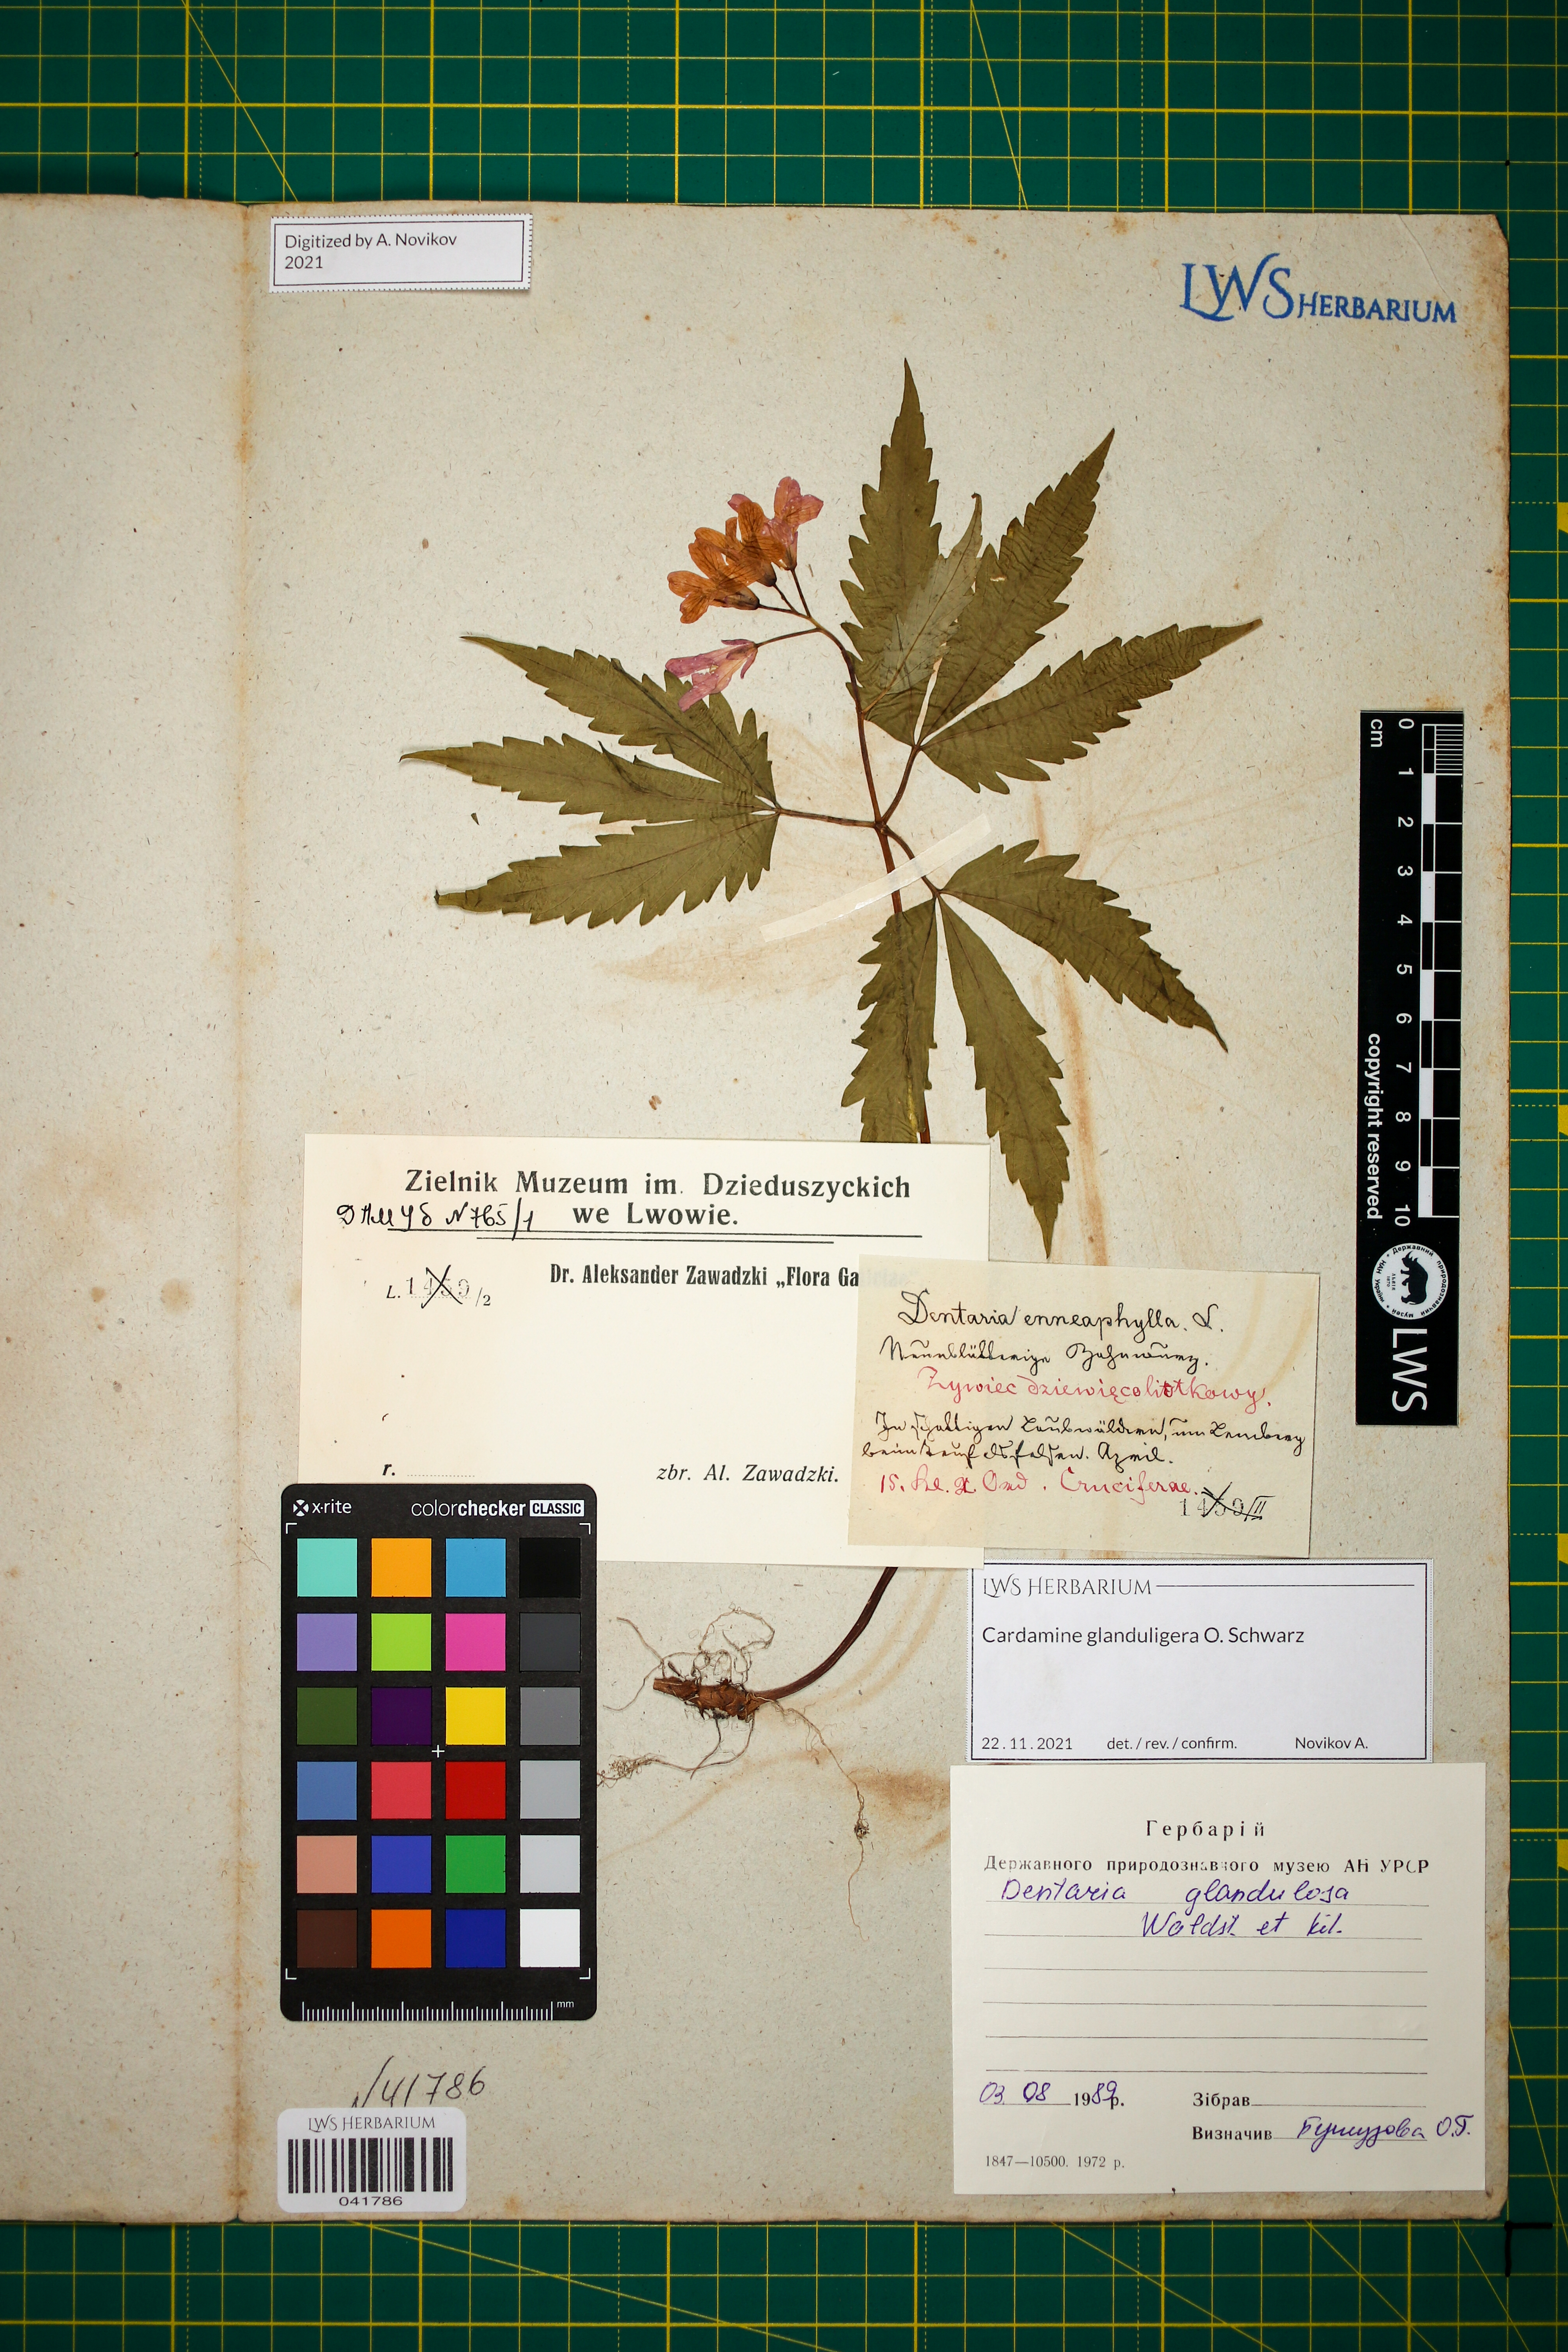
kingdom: Plantae
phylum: Tracheophyta
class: Magnoliopsida
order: Brassicales
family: Brassicaceae
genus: Cardamine
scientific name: Cardamine glanduligera
